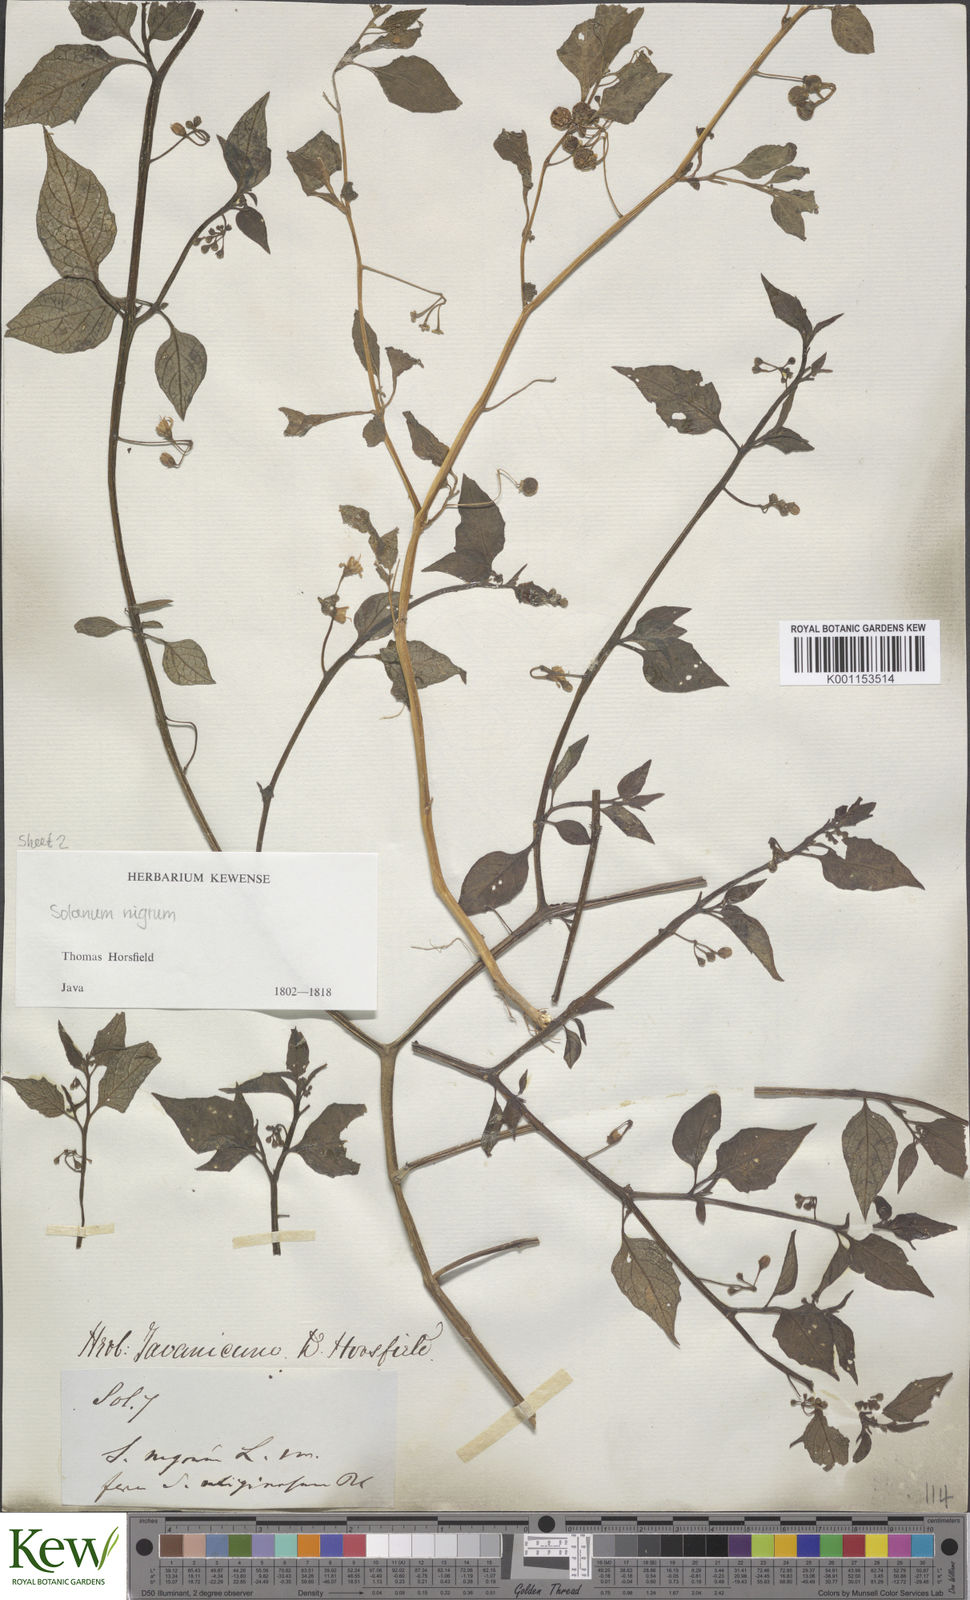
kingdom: Plantae
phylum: Tracheophyta
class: Magnoliopsida
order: Solanales
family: Solanaceae
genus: Solanum
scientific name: Solanum nigrum
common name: Black nightshade
